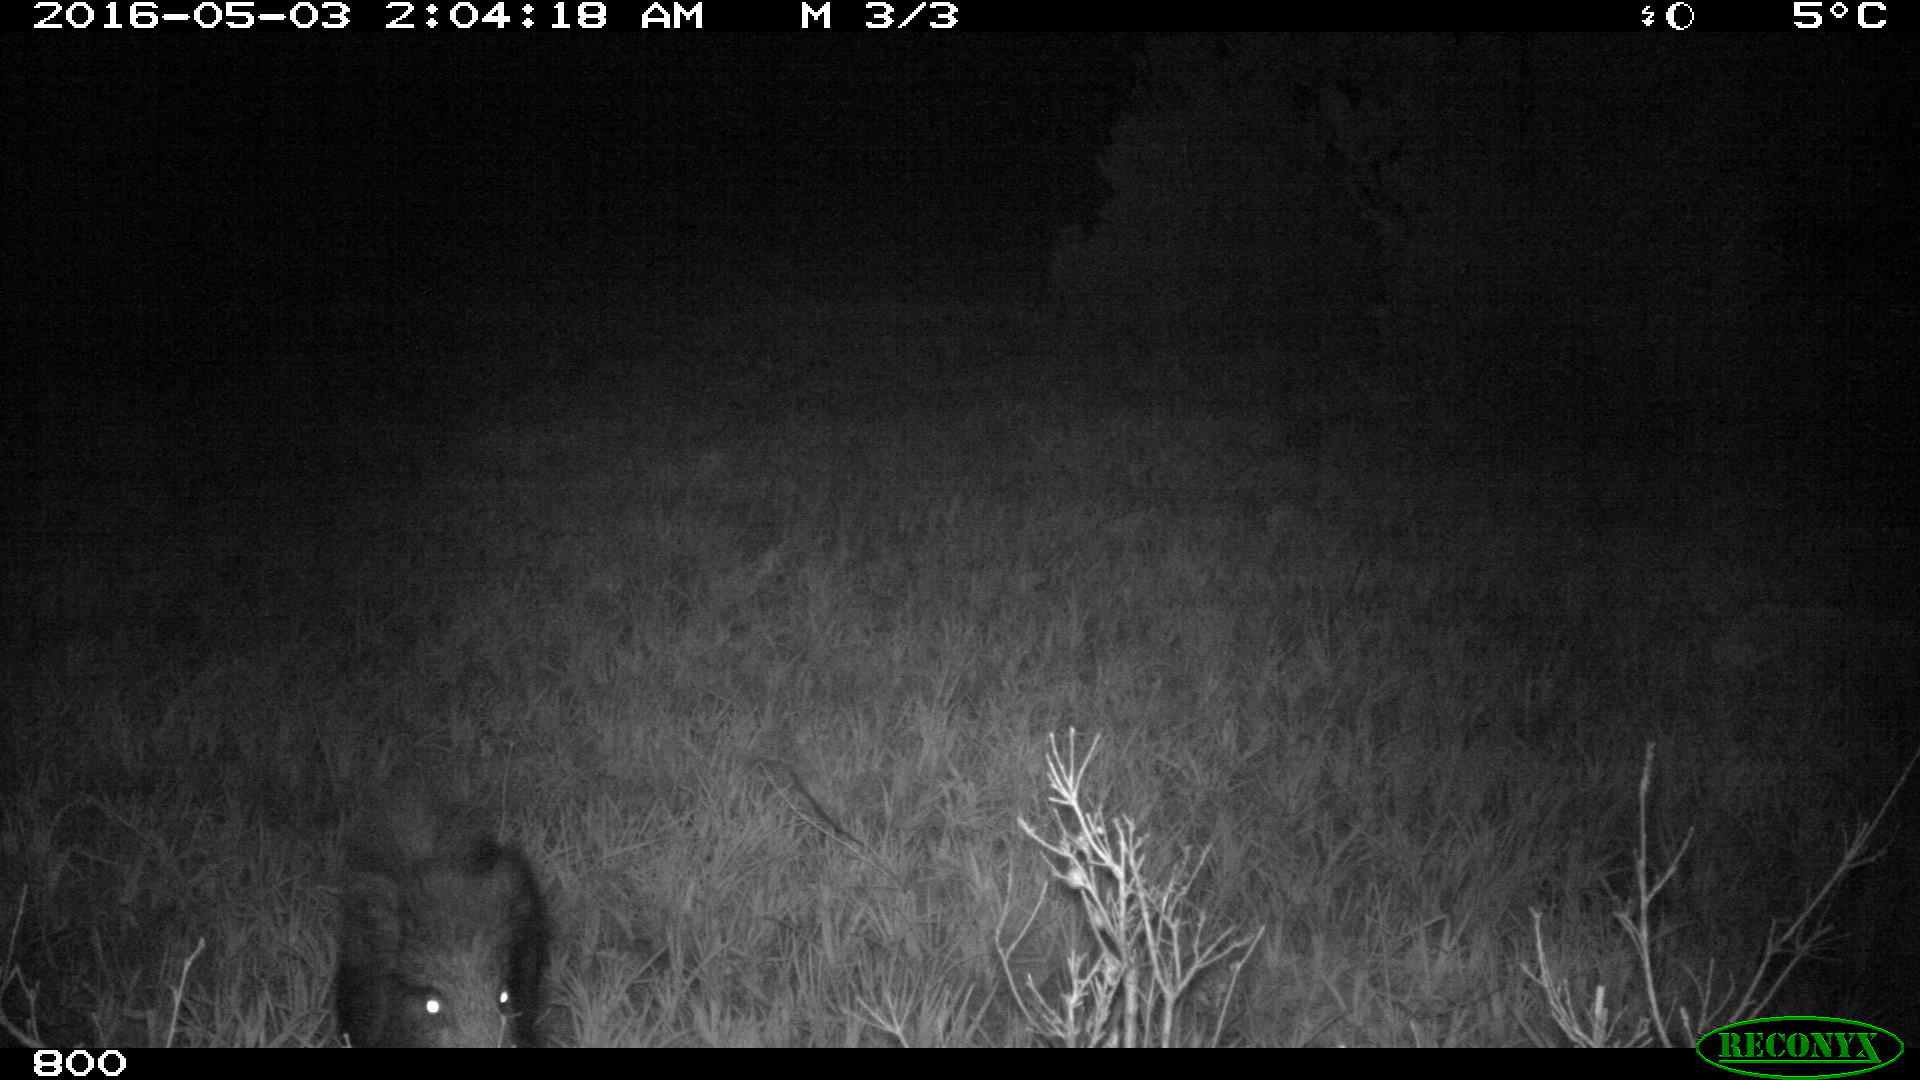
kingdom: Animalia
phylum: Chordata
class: Mammalia
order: Artiodactyla
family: Suidae
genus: Sus
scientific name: Sus scrofa
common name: Wild boar
